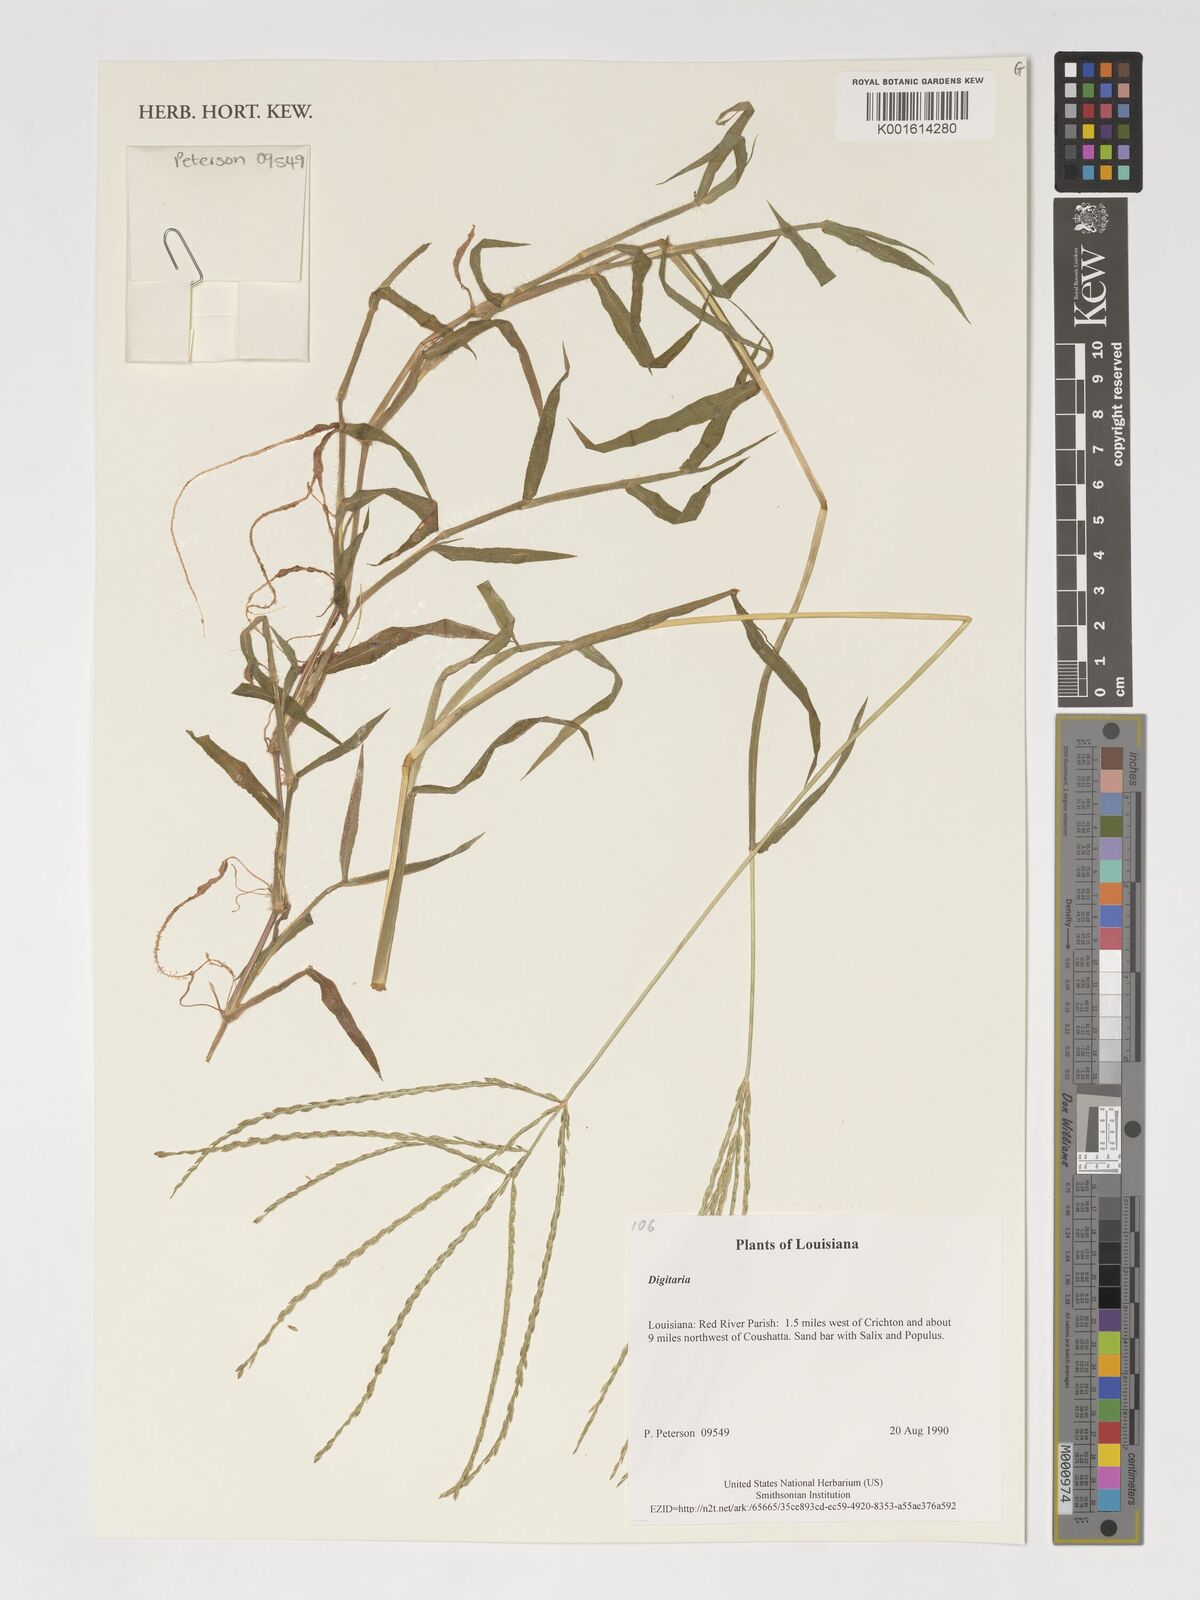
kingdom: Plantae
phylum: Tracheophyta
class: Liliopsida
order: Poales
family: Poaceae
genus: Digitaria
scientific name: Digitaria spec
